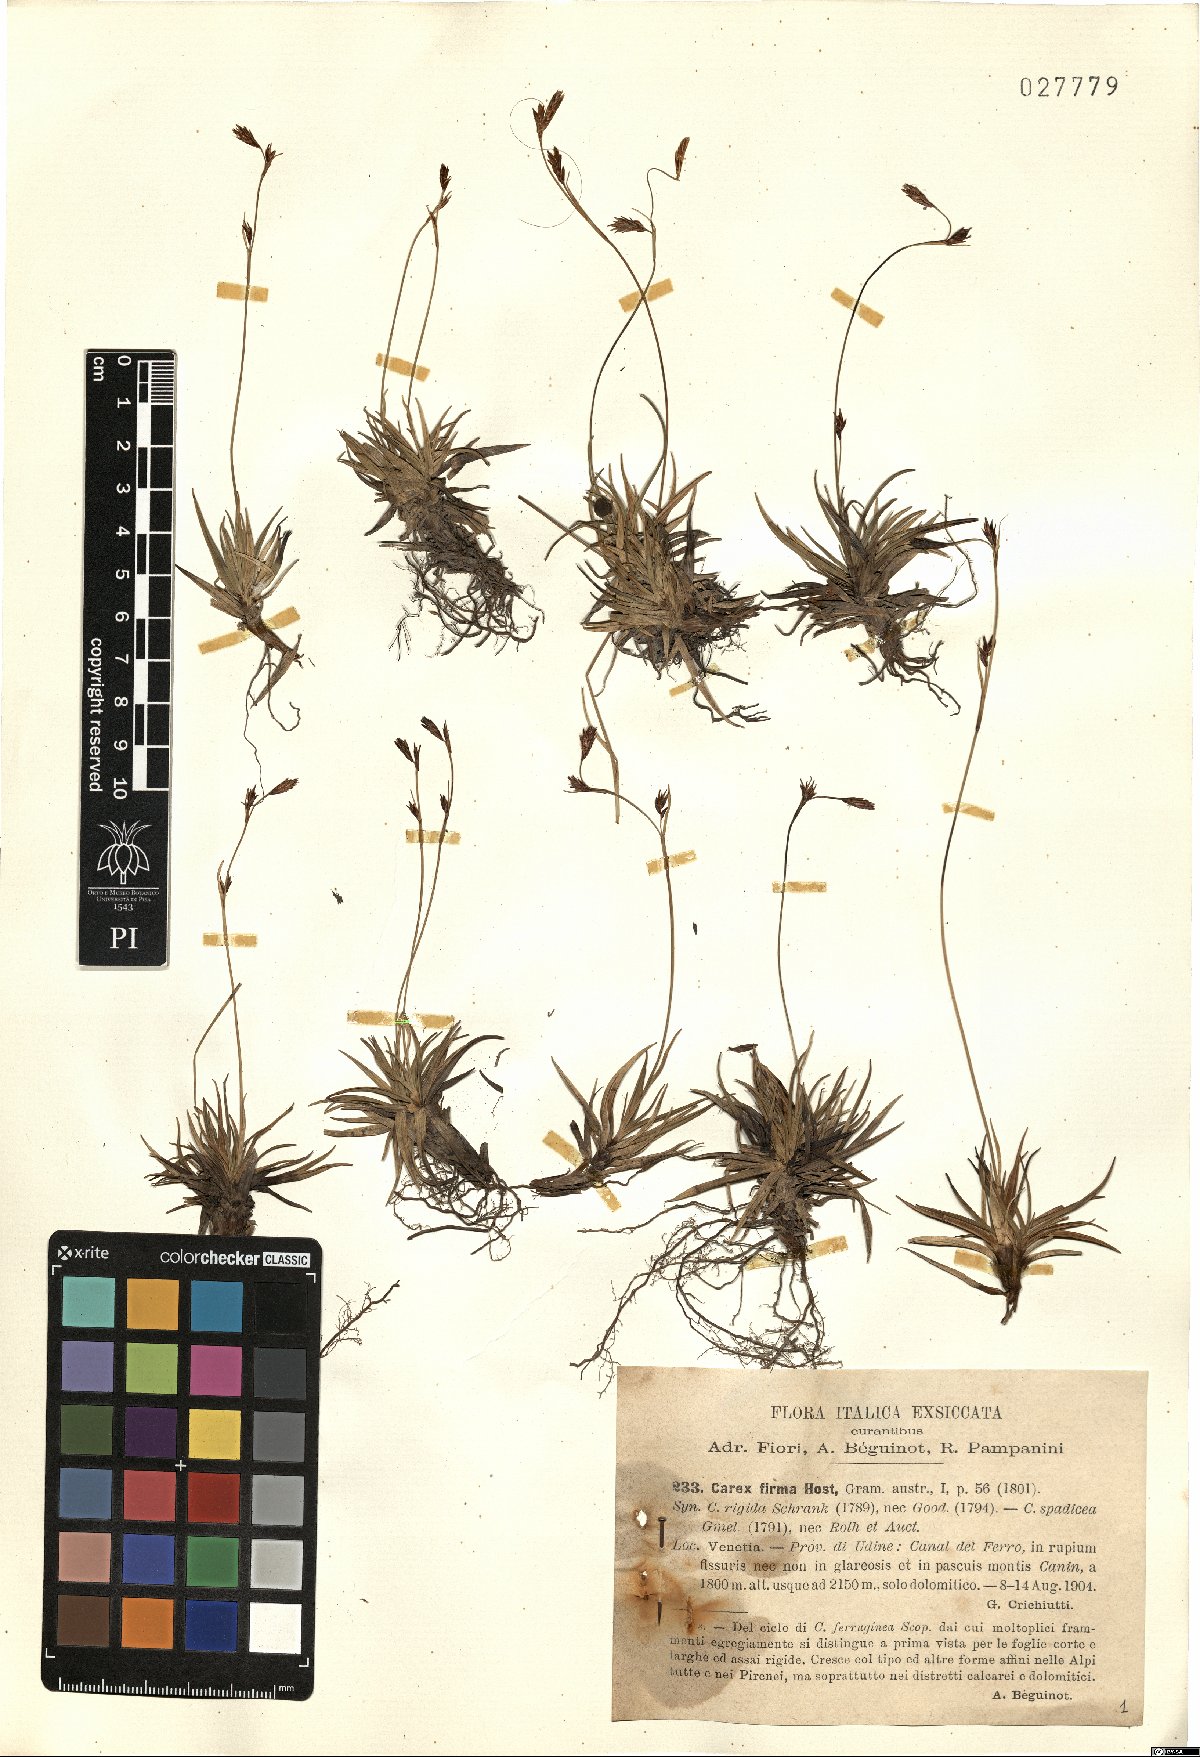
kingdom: Plantae
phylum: Tracheophyta
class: Liliopsida
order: Poales
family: Cyperaceae
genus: Carex
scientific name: Carex firma
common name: Dwarf pillow sedge
